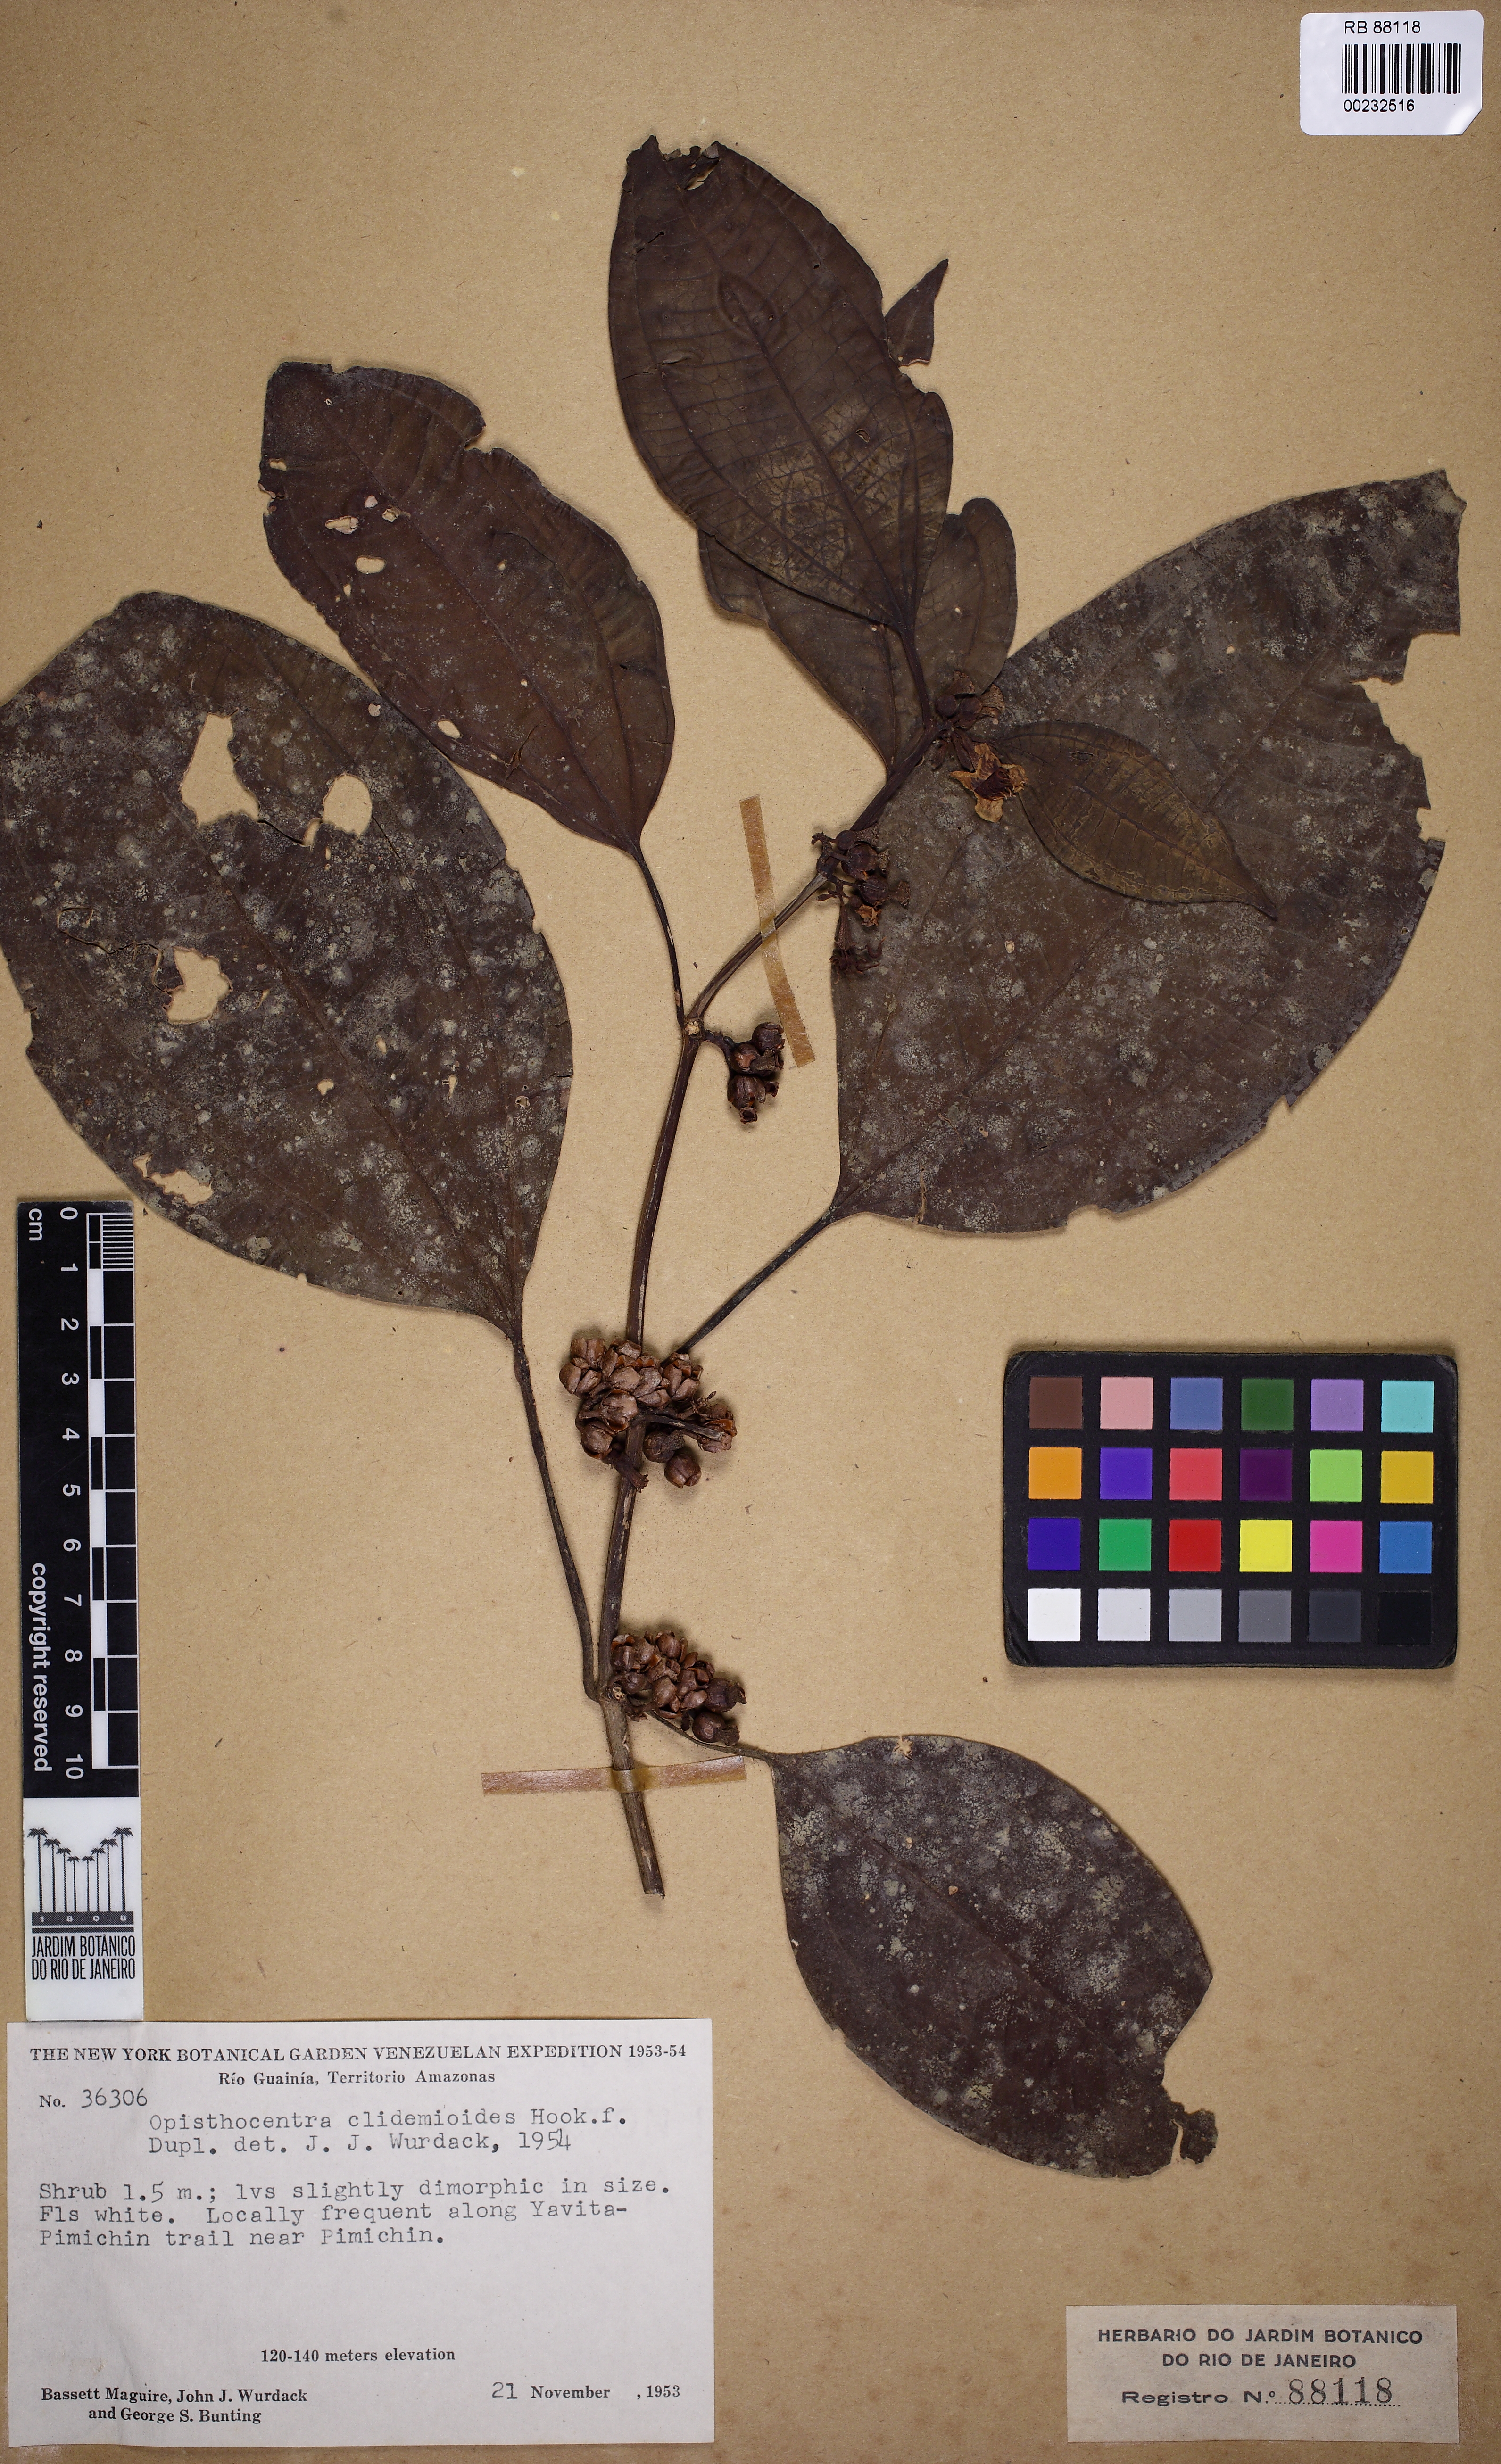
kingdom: Plantae
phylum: Tracheophyta
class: Magnoliopsida
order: Myrtales
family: Melastomataceae
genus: Opisthocentra
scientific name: Opisthocentra clidemioides
